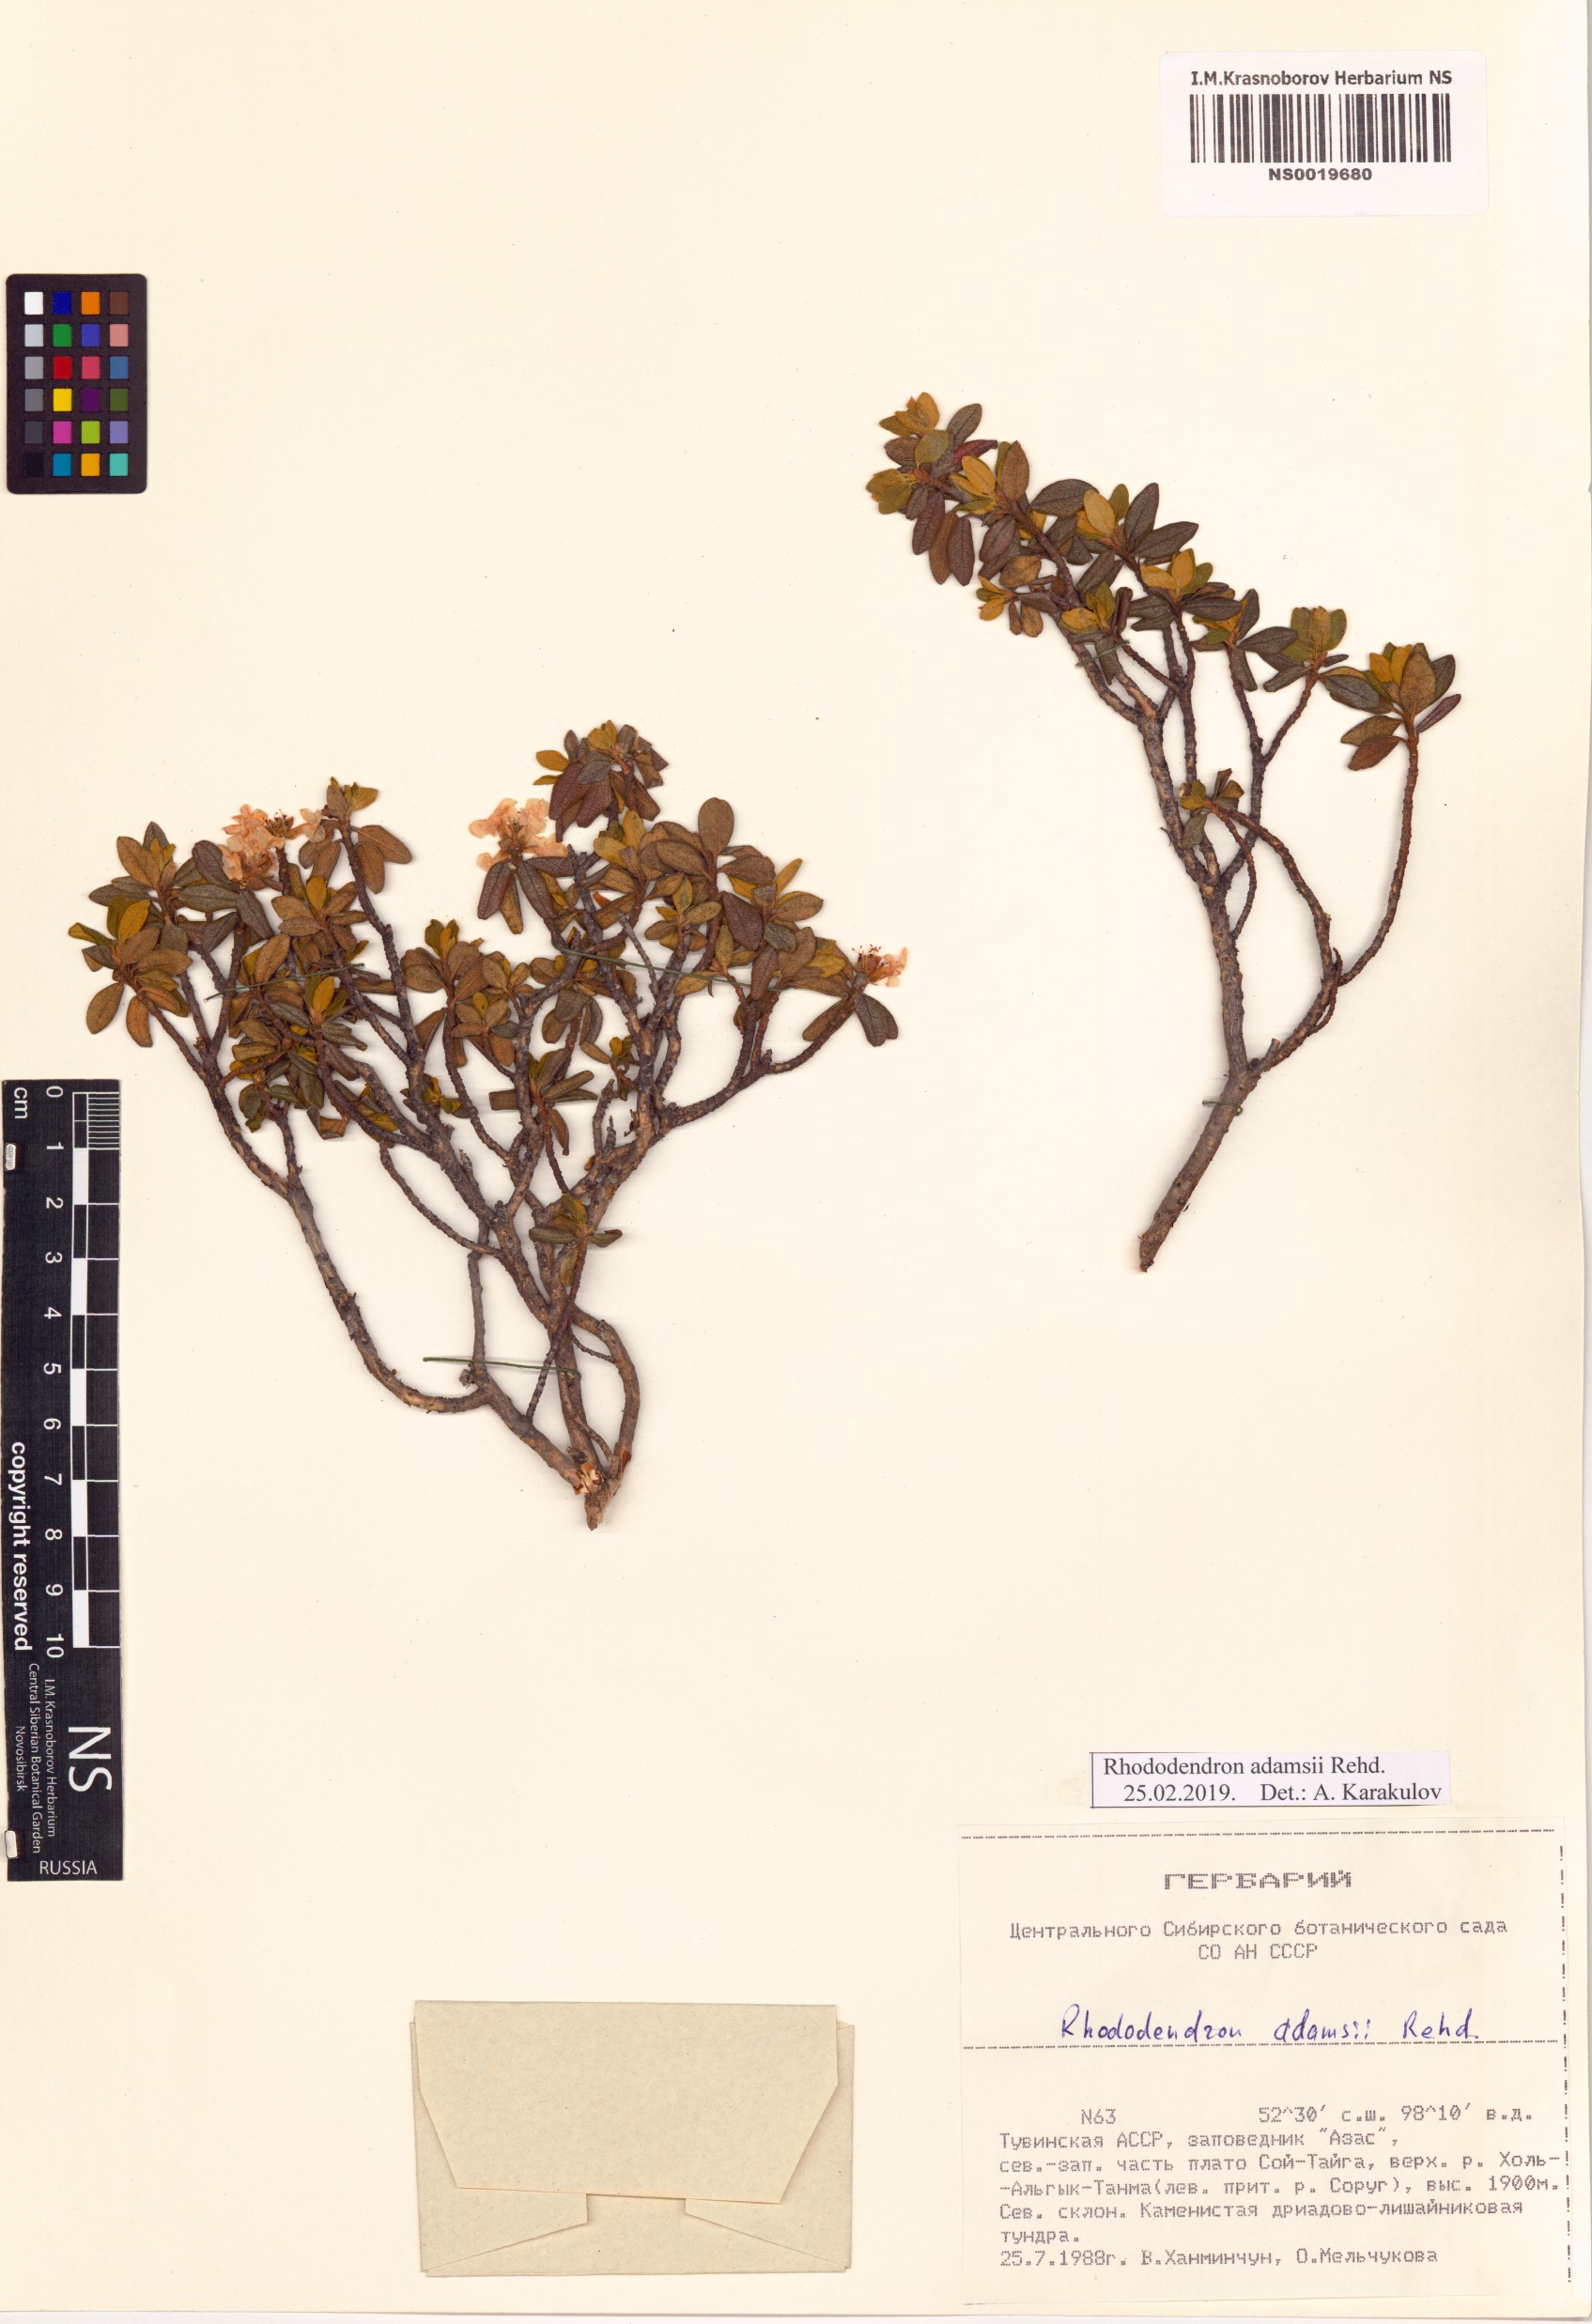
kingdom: Plantae
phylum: Tracheophyta
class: Magnoliopsida
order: Ericales
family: Ericaceae
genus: Rhododendron
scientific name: Rhododendron adamsii
